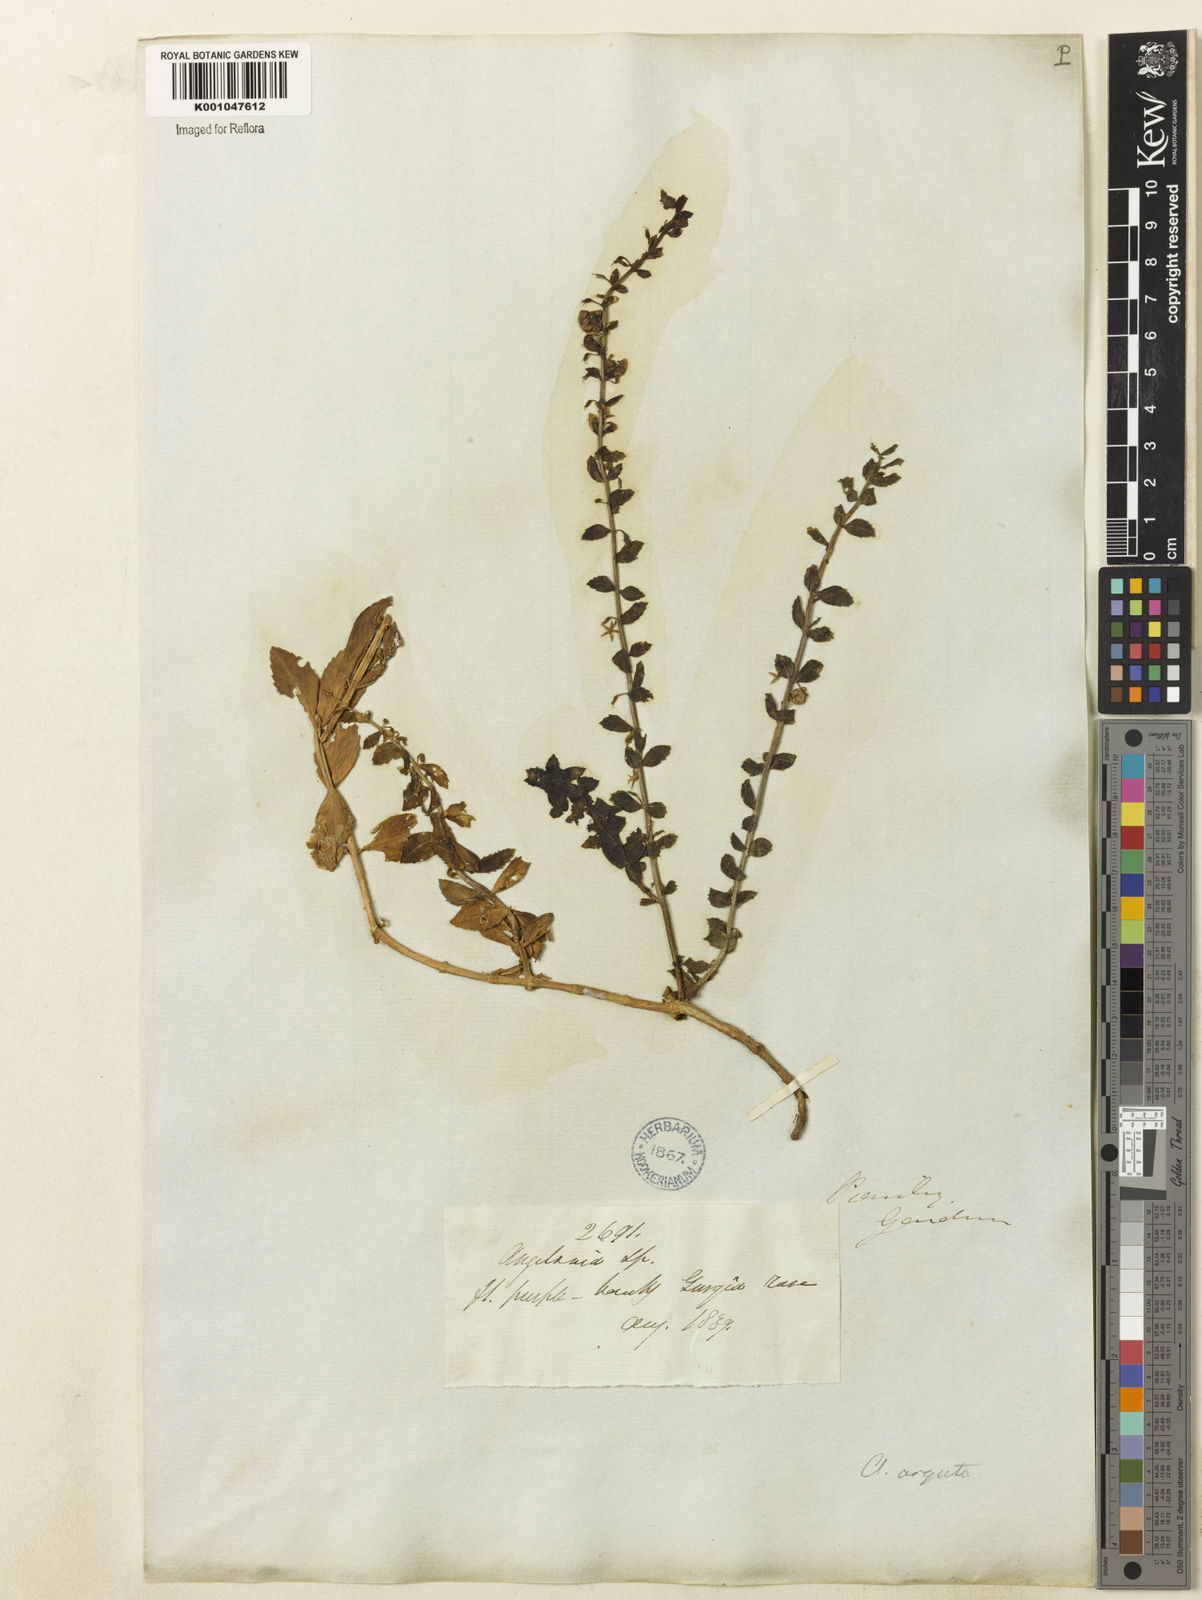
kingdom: Plantae
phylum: Tracheophyta
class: Magnoliopsida
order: Lamiales
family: Plantaginaceae
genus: Angelonia
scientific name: Angelonia arguta
